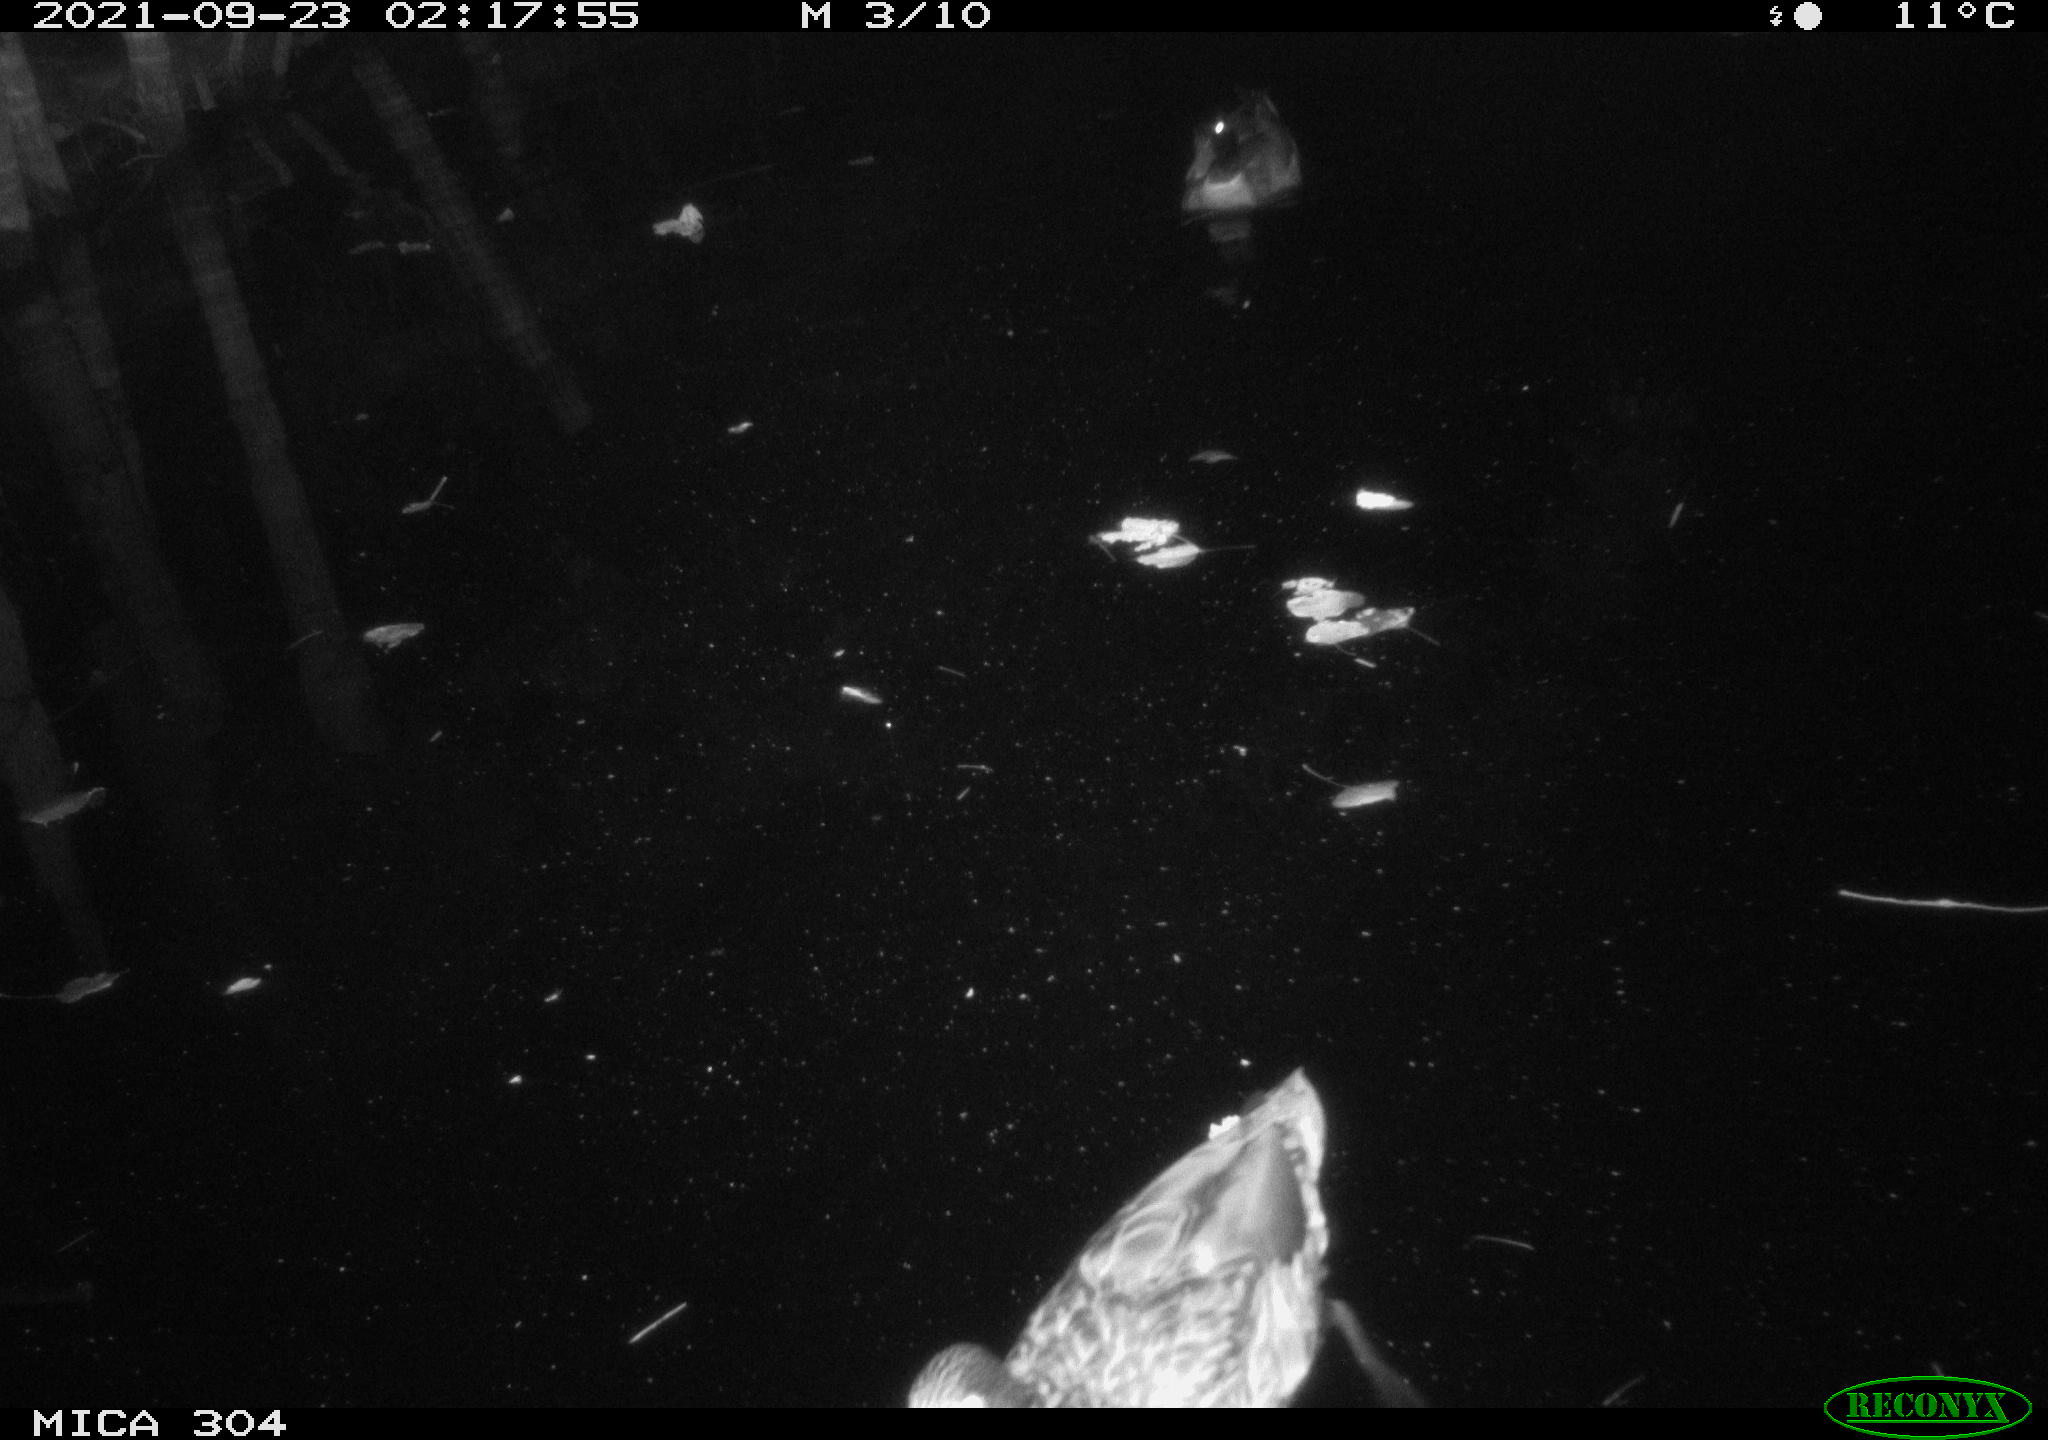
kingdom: Animalia
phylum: Chordata
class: Aves
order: Anseriformes
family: Anatidae
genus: Mareca
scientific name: Mareca strepera
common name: Gadwall
